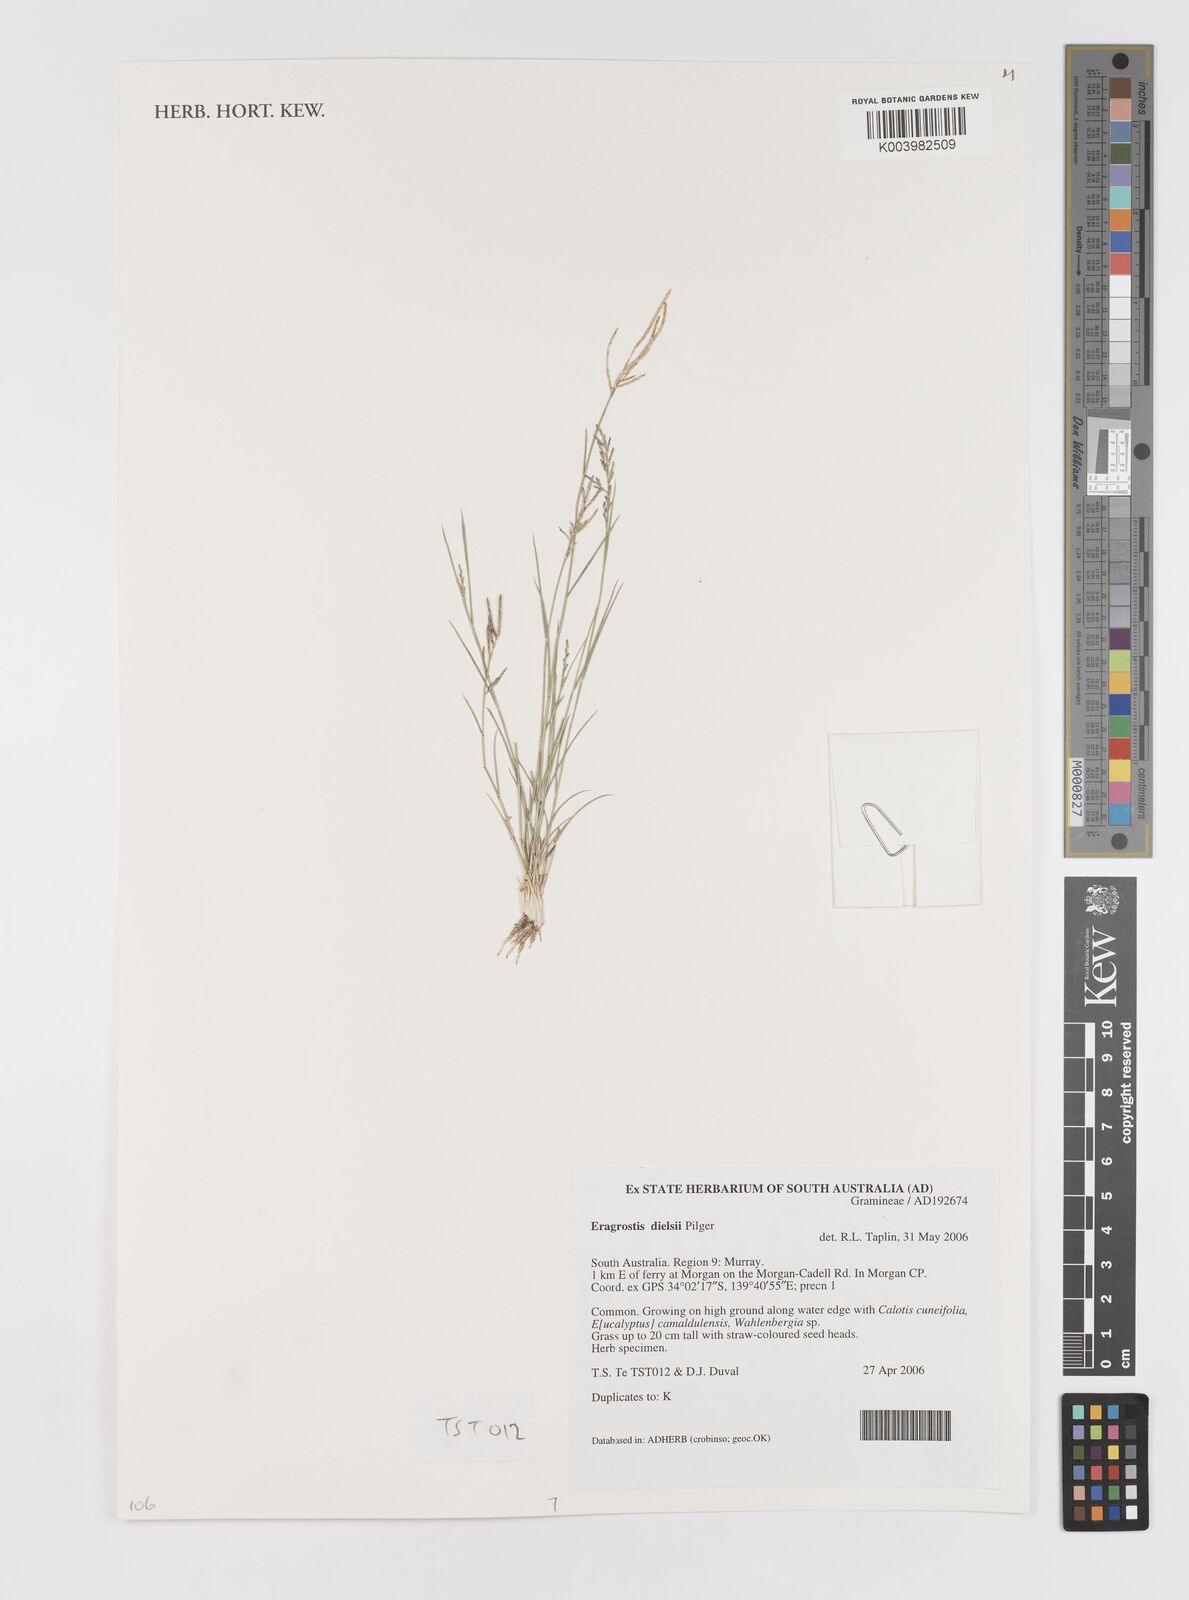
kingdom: Plantae
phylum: Tracheophyta
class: Liliopsida
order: Poales
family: Poaceae
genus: Eragrostis
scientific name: Eragrostis dielsii
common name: Lovegrass
